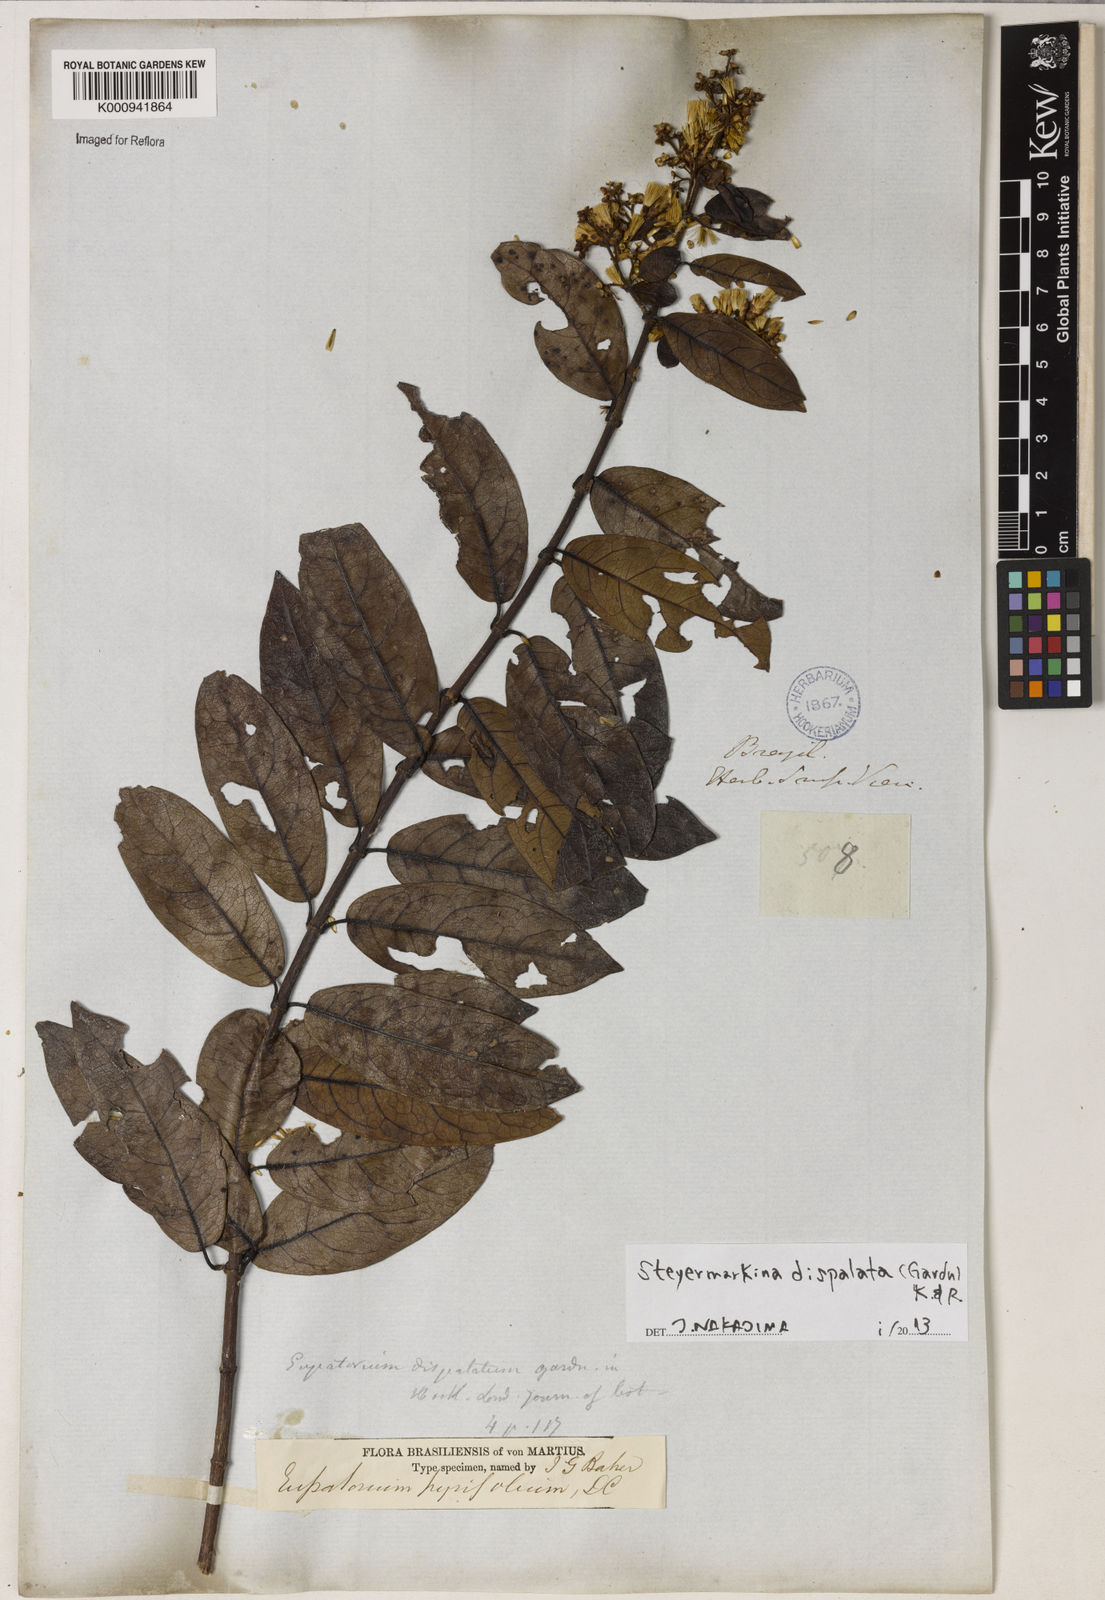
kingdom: Plantae
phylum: Tracheophyta
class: Magnoliopsida
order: Asterales
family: Asteraceae
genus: Steyermarkina
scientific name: Steyermarkina dispalata
